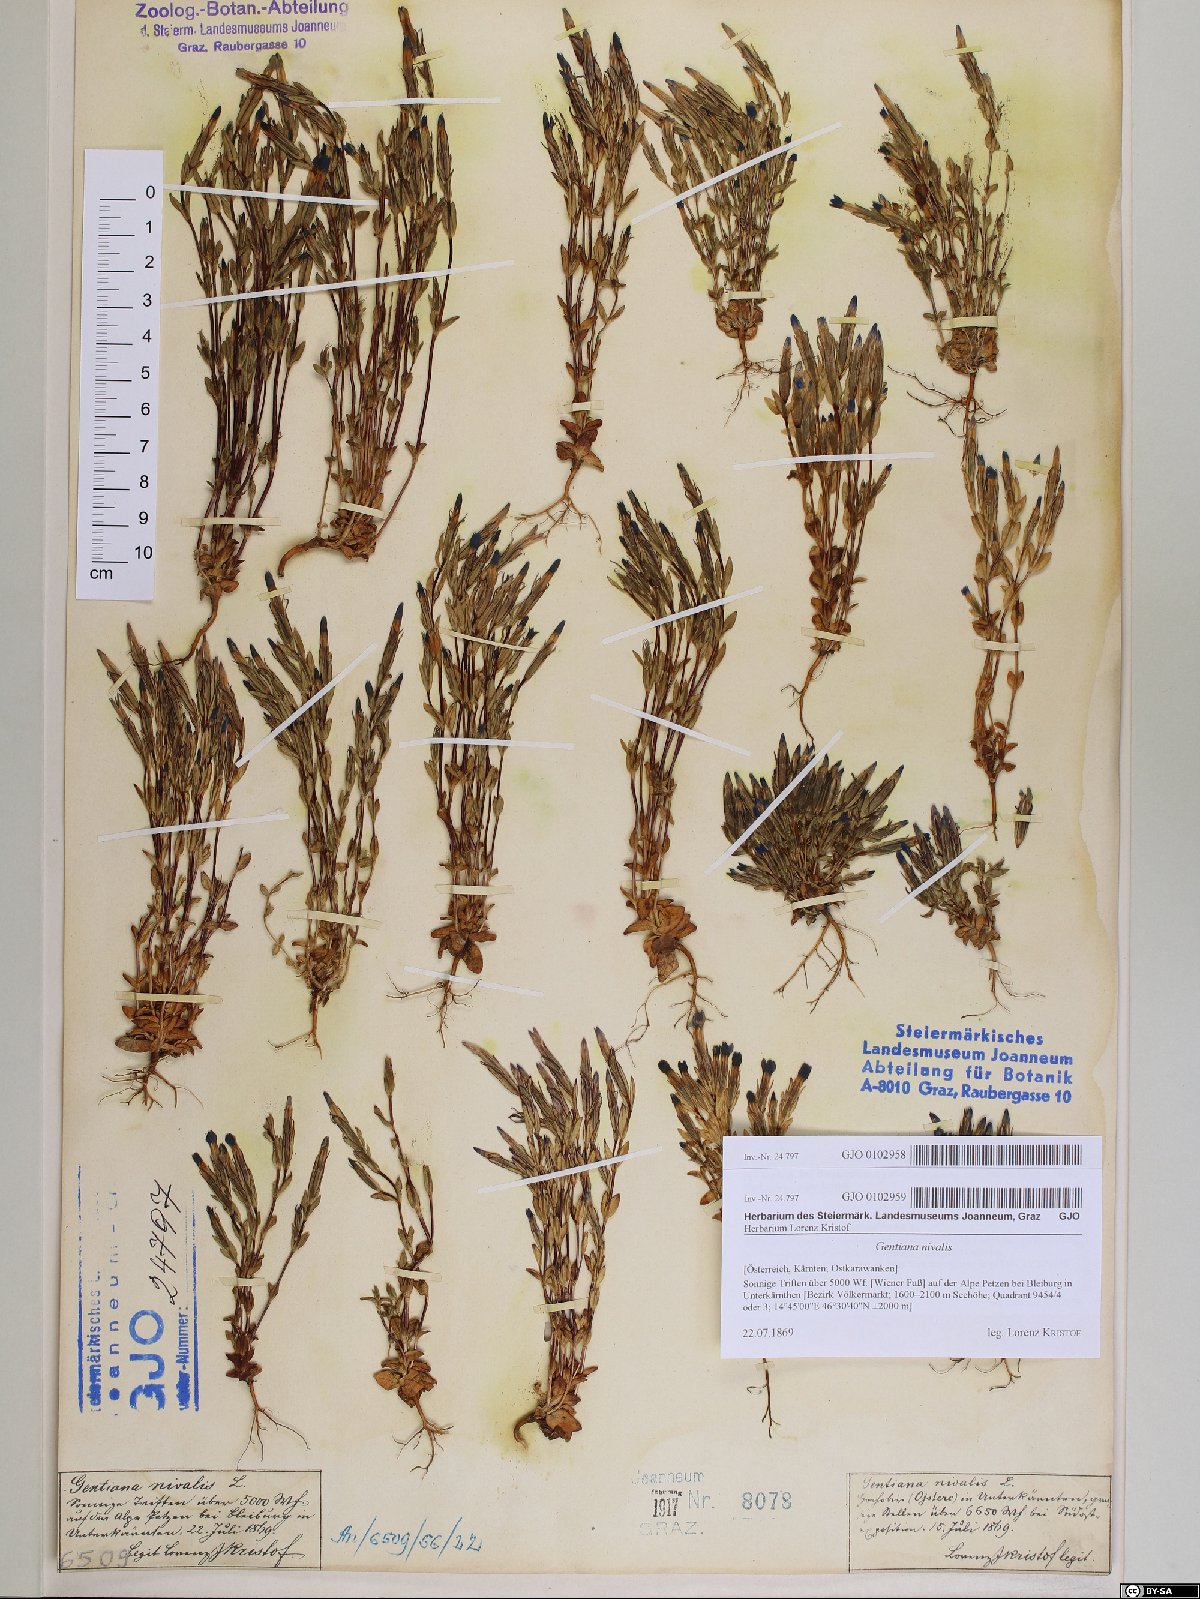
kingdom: Plantae
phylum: Tracheophyta
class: Magnoliopsida
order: Gentianales
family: Gentianaceae
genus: Gentiana
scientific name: Gentiana nivalis
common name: Alpine gentian
